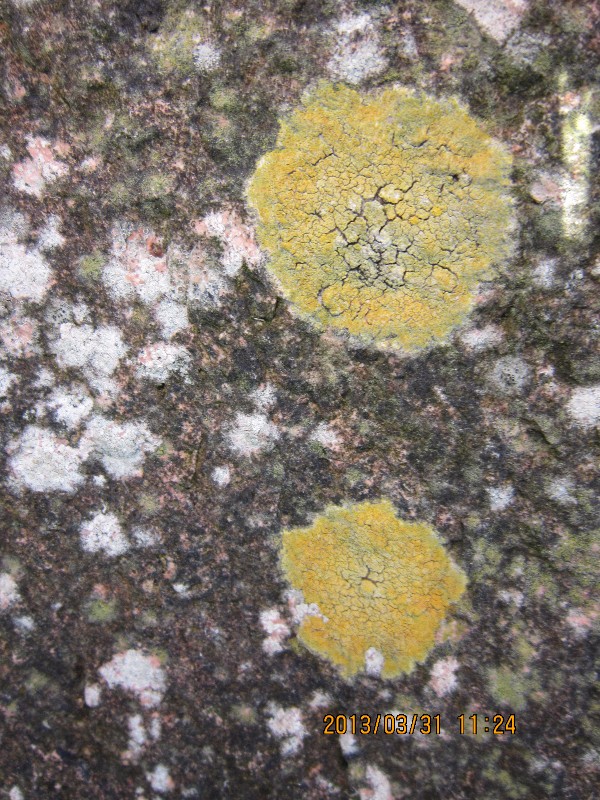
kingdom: Fungi
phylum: Ascomycota
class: Lecanoromycetes
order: Lecanorales
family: Parmeliaceae
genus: Lichen
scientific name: Lichen
